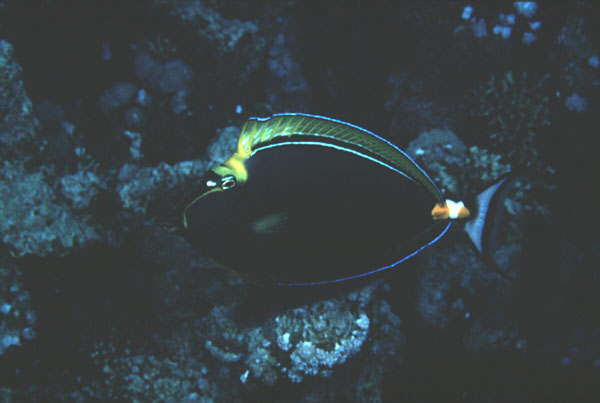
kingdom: Animalia
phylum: Chordata
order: Perciformes
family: Acanthuridae
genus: Naso
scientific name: Naso lituratus
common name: Orangespine unicornfish
